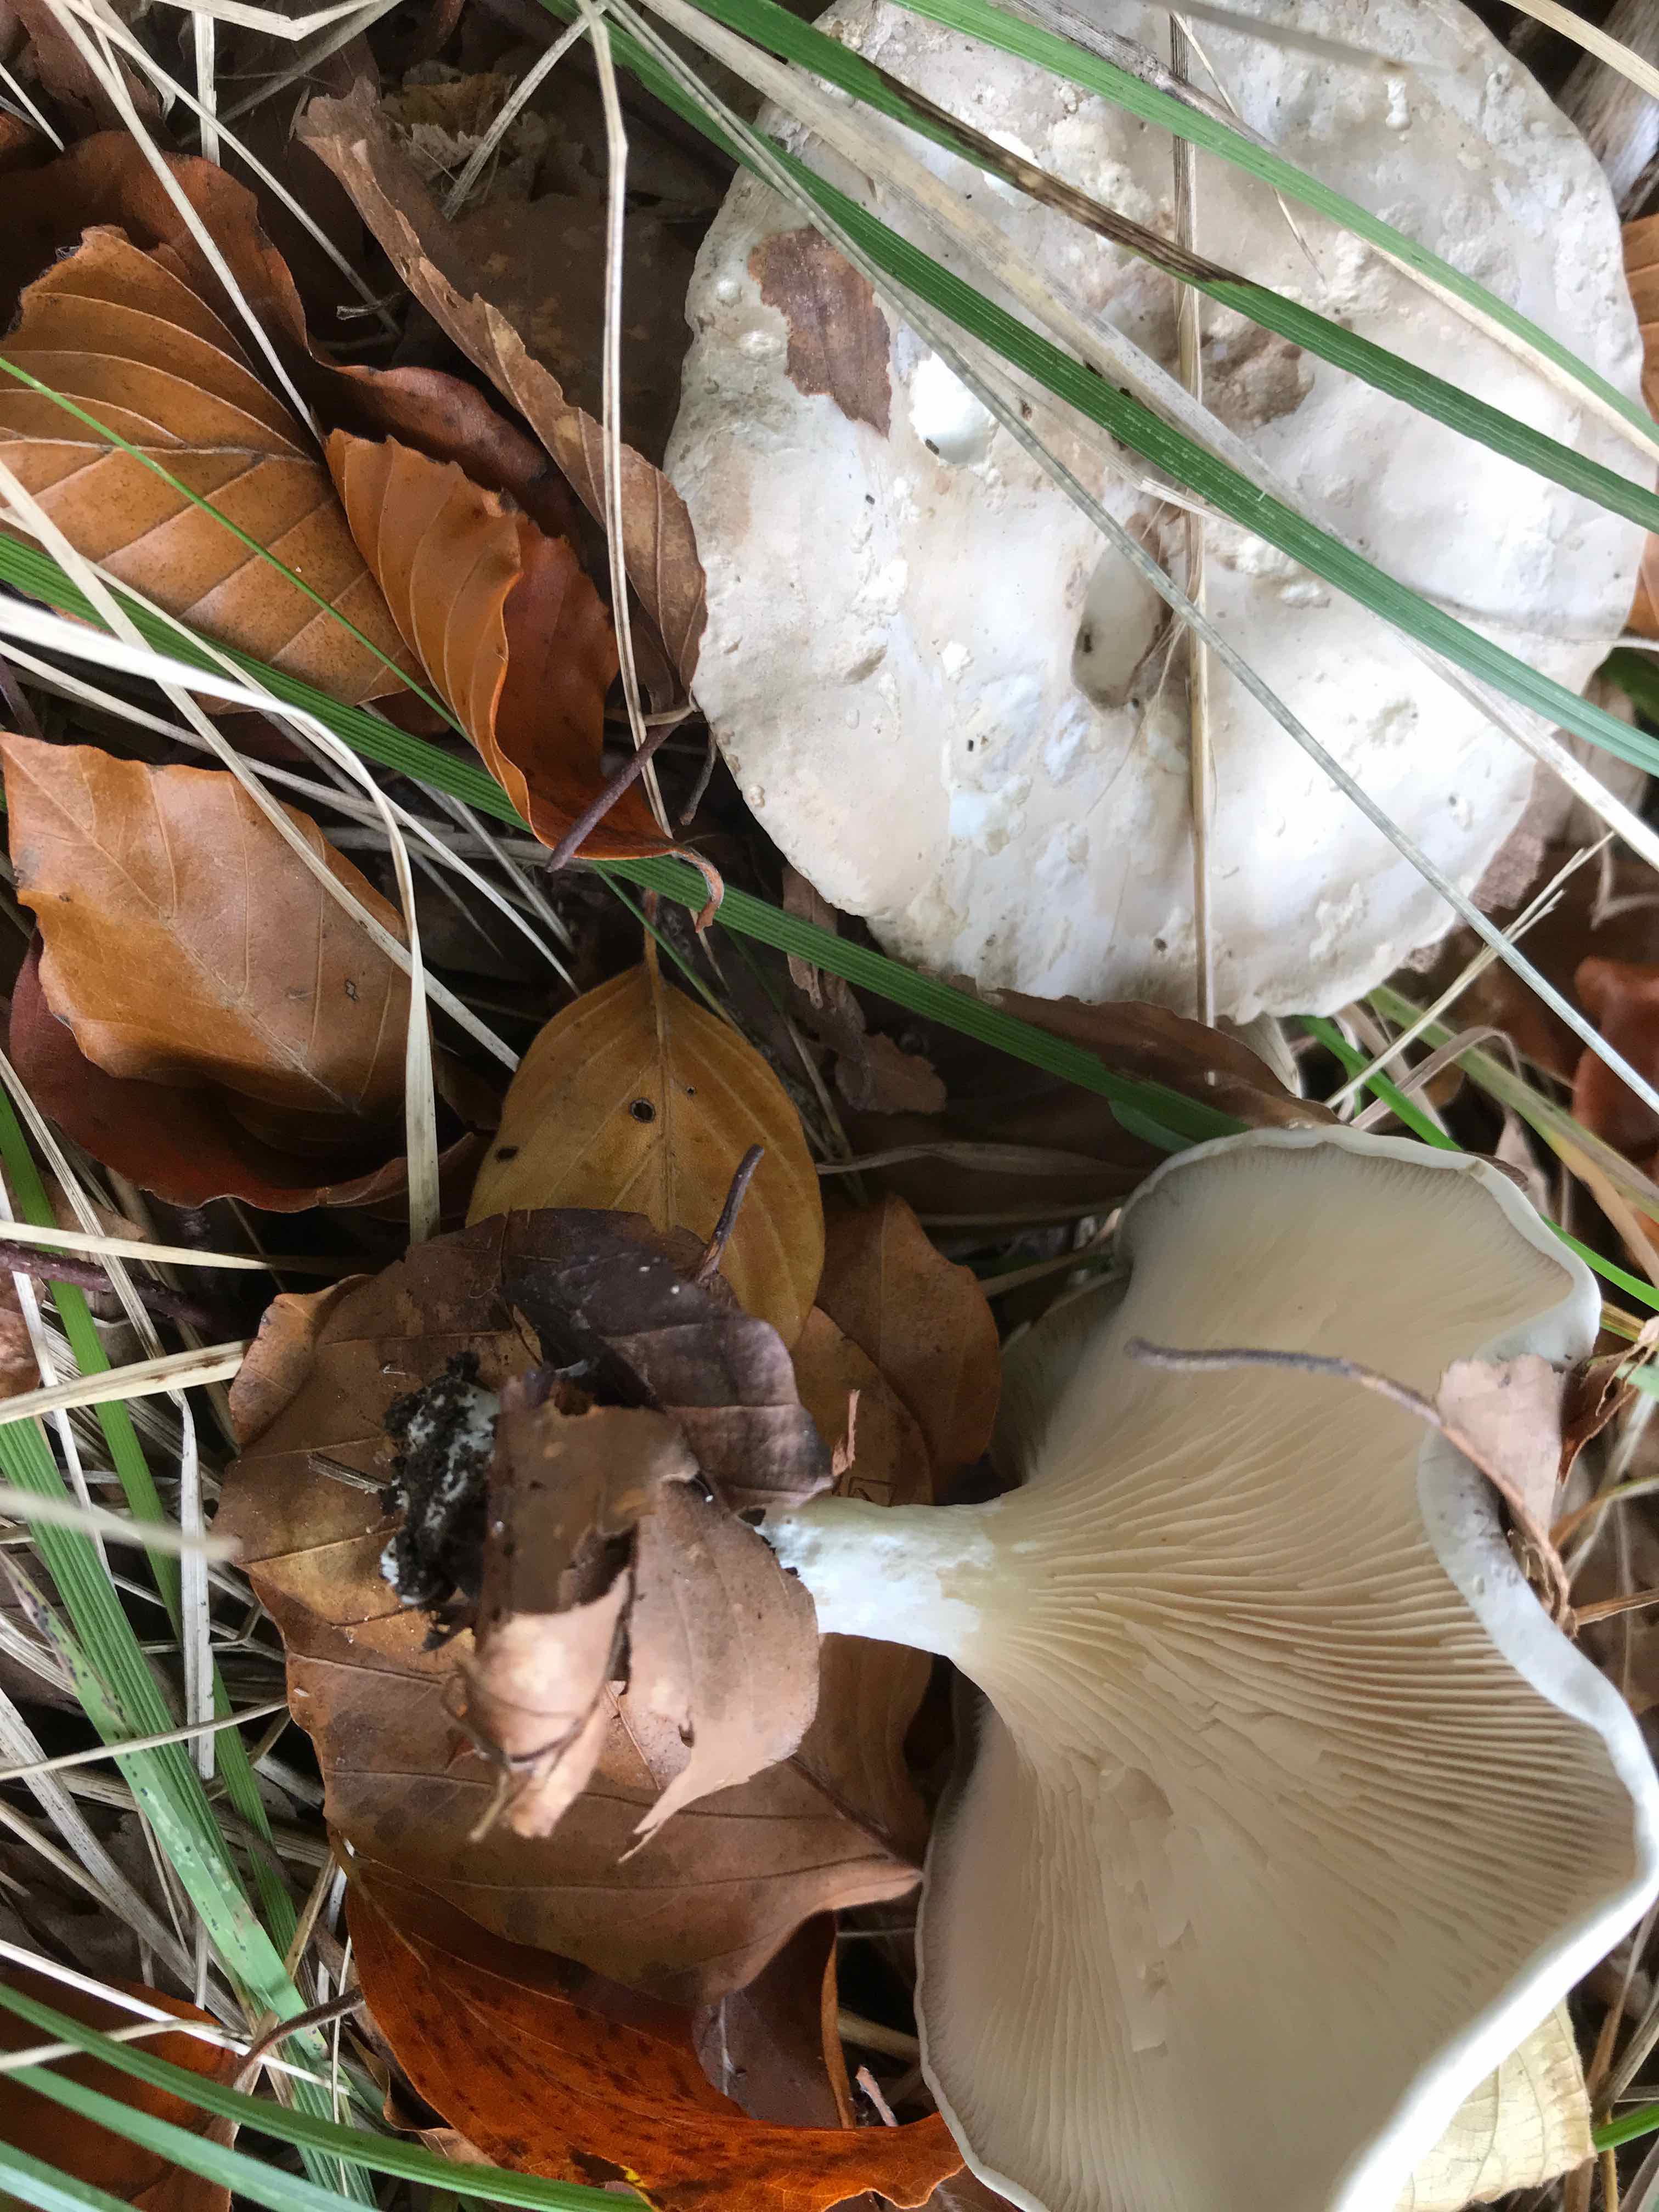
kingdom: Fungi
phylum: Basidiomycota
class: Agaricomycetes
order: Agaricales
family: Entolomataceae
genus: Clitopilus
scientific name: Clitopilus prunulus
